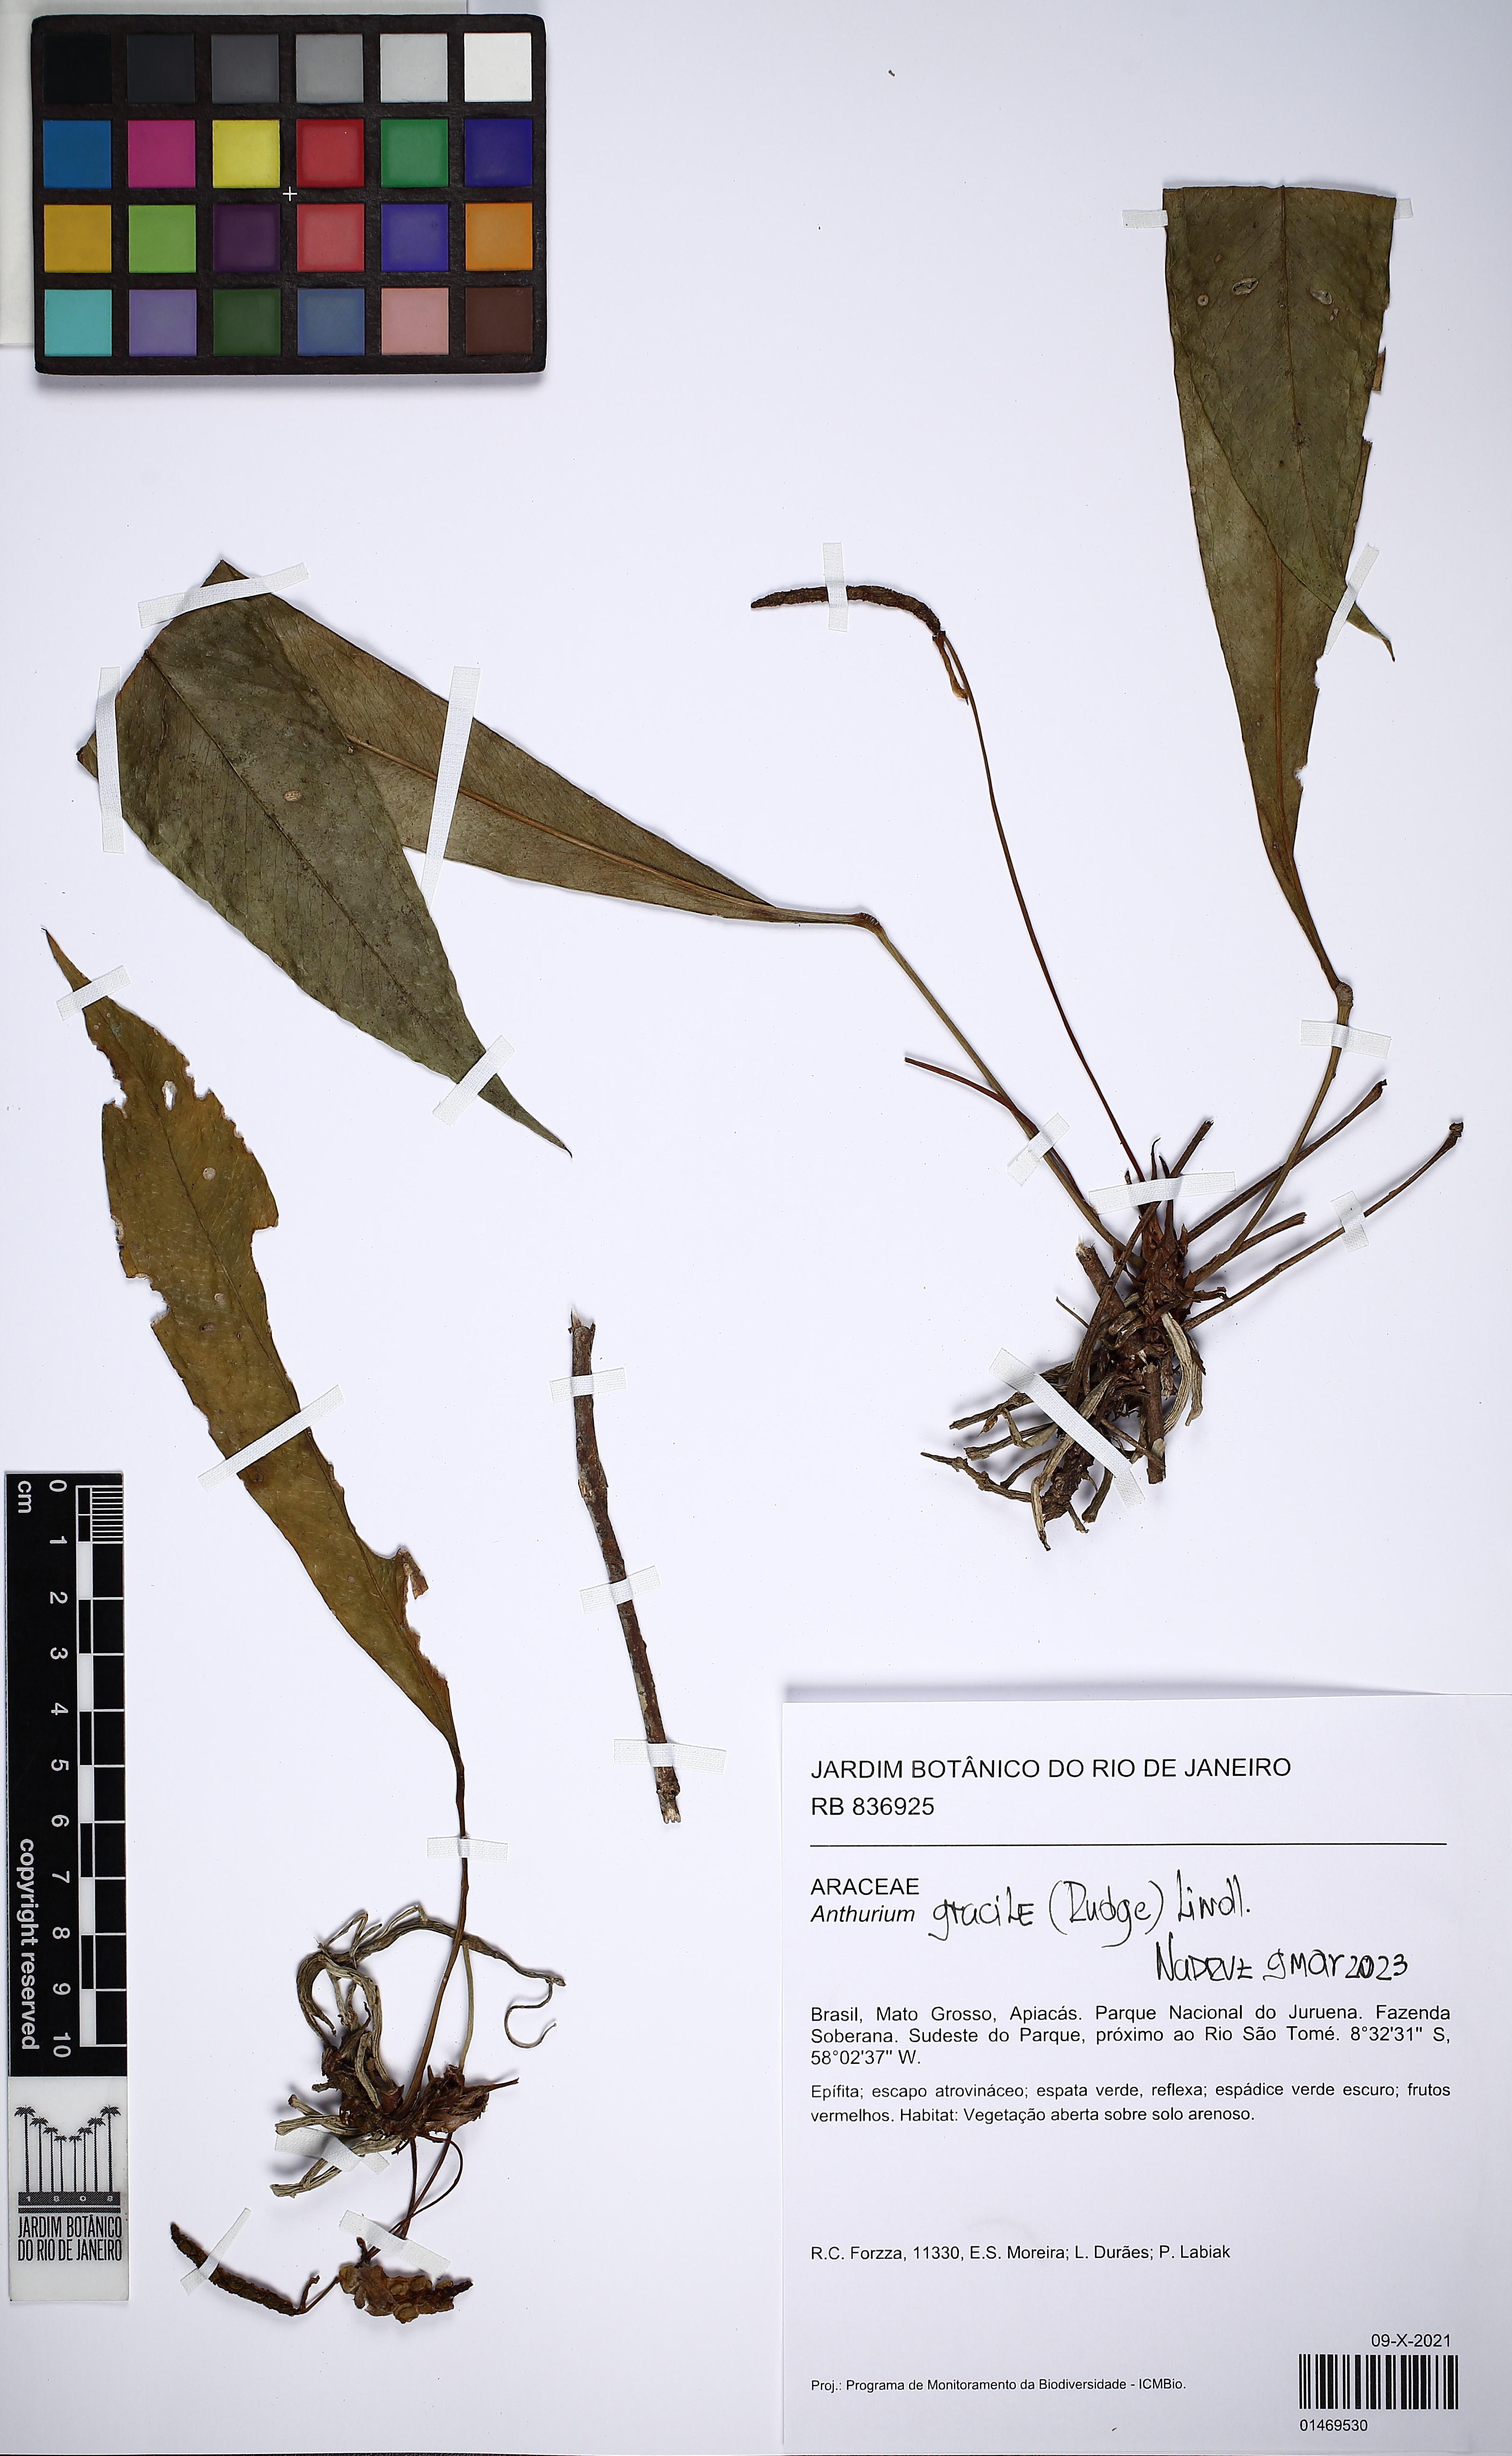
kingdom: Plantae
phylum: Tracheophyta
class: Liliopsida
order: Alismatales
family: Araceae
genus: Anthurium
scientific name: Anthurium gracile
